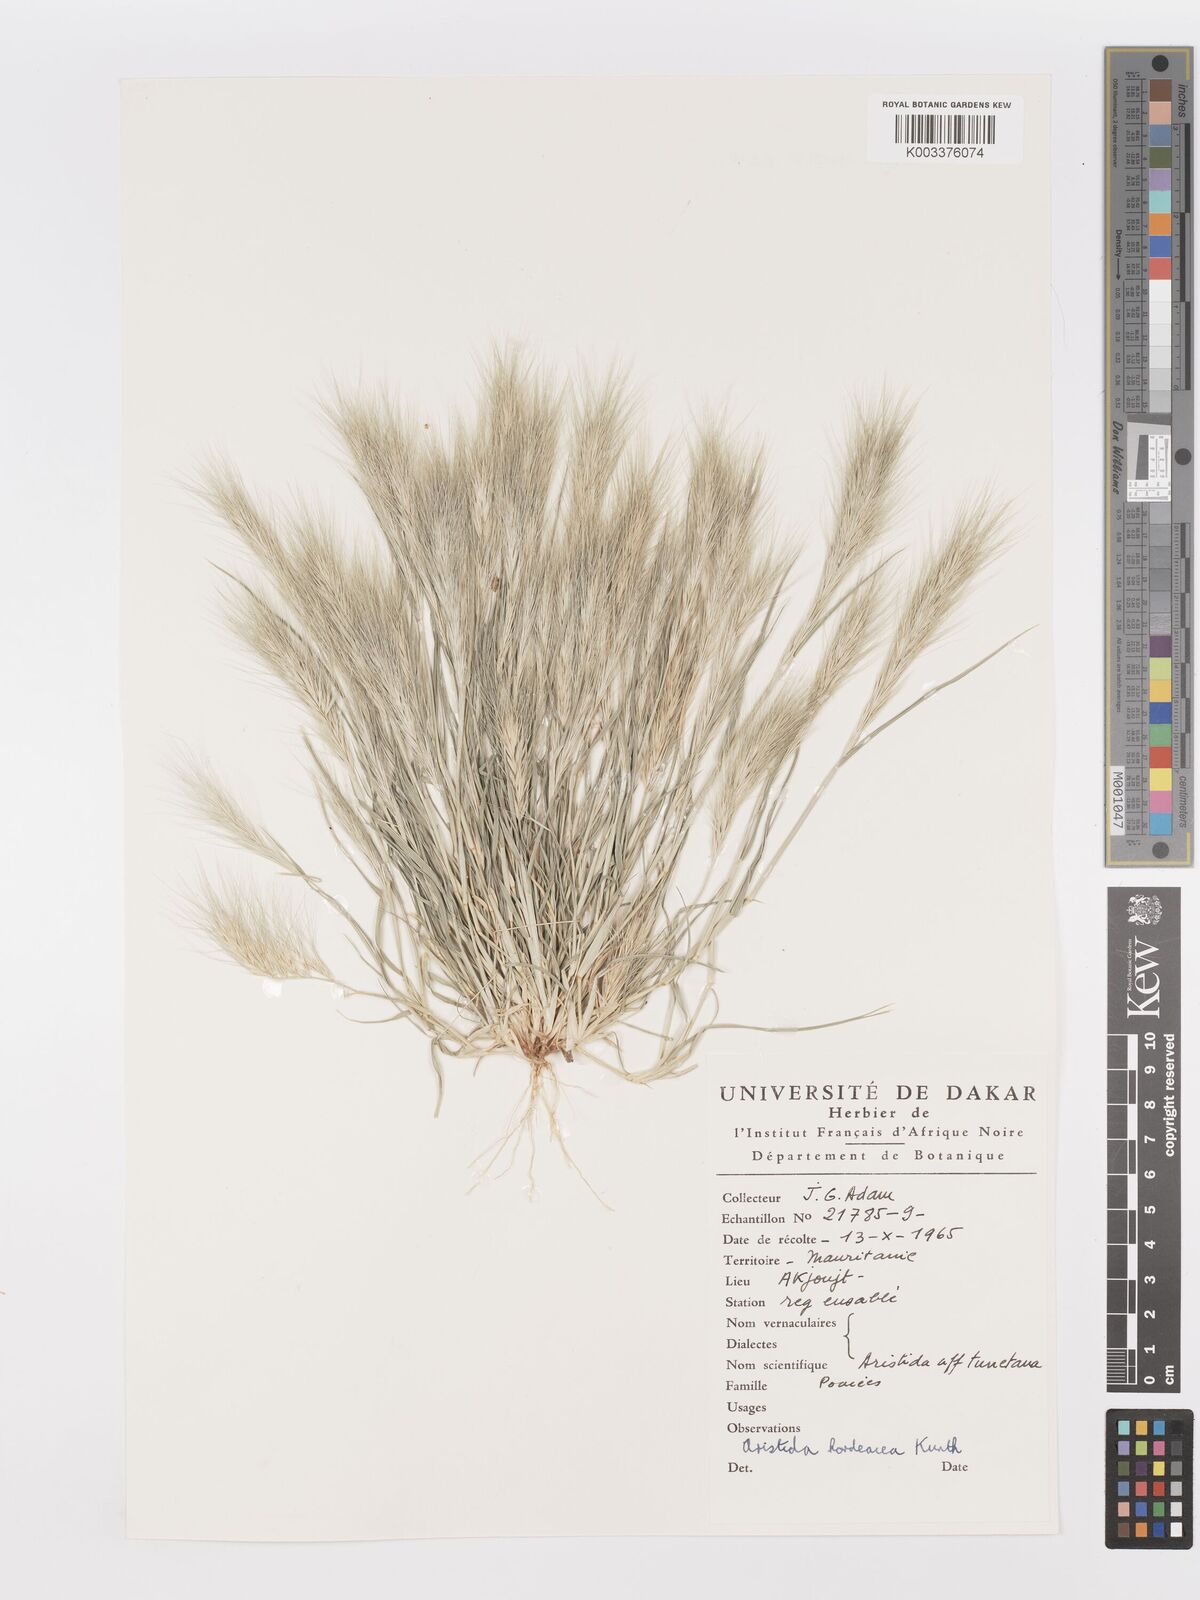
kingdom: Plantae
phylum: Tracheophyta
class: Liliopsida
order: Poales
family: Poaceae
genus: Aristida
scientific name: Aristida hordeacea
